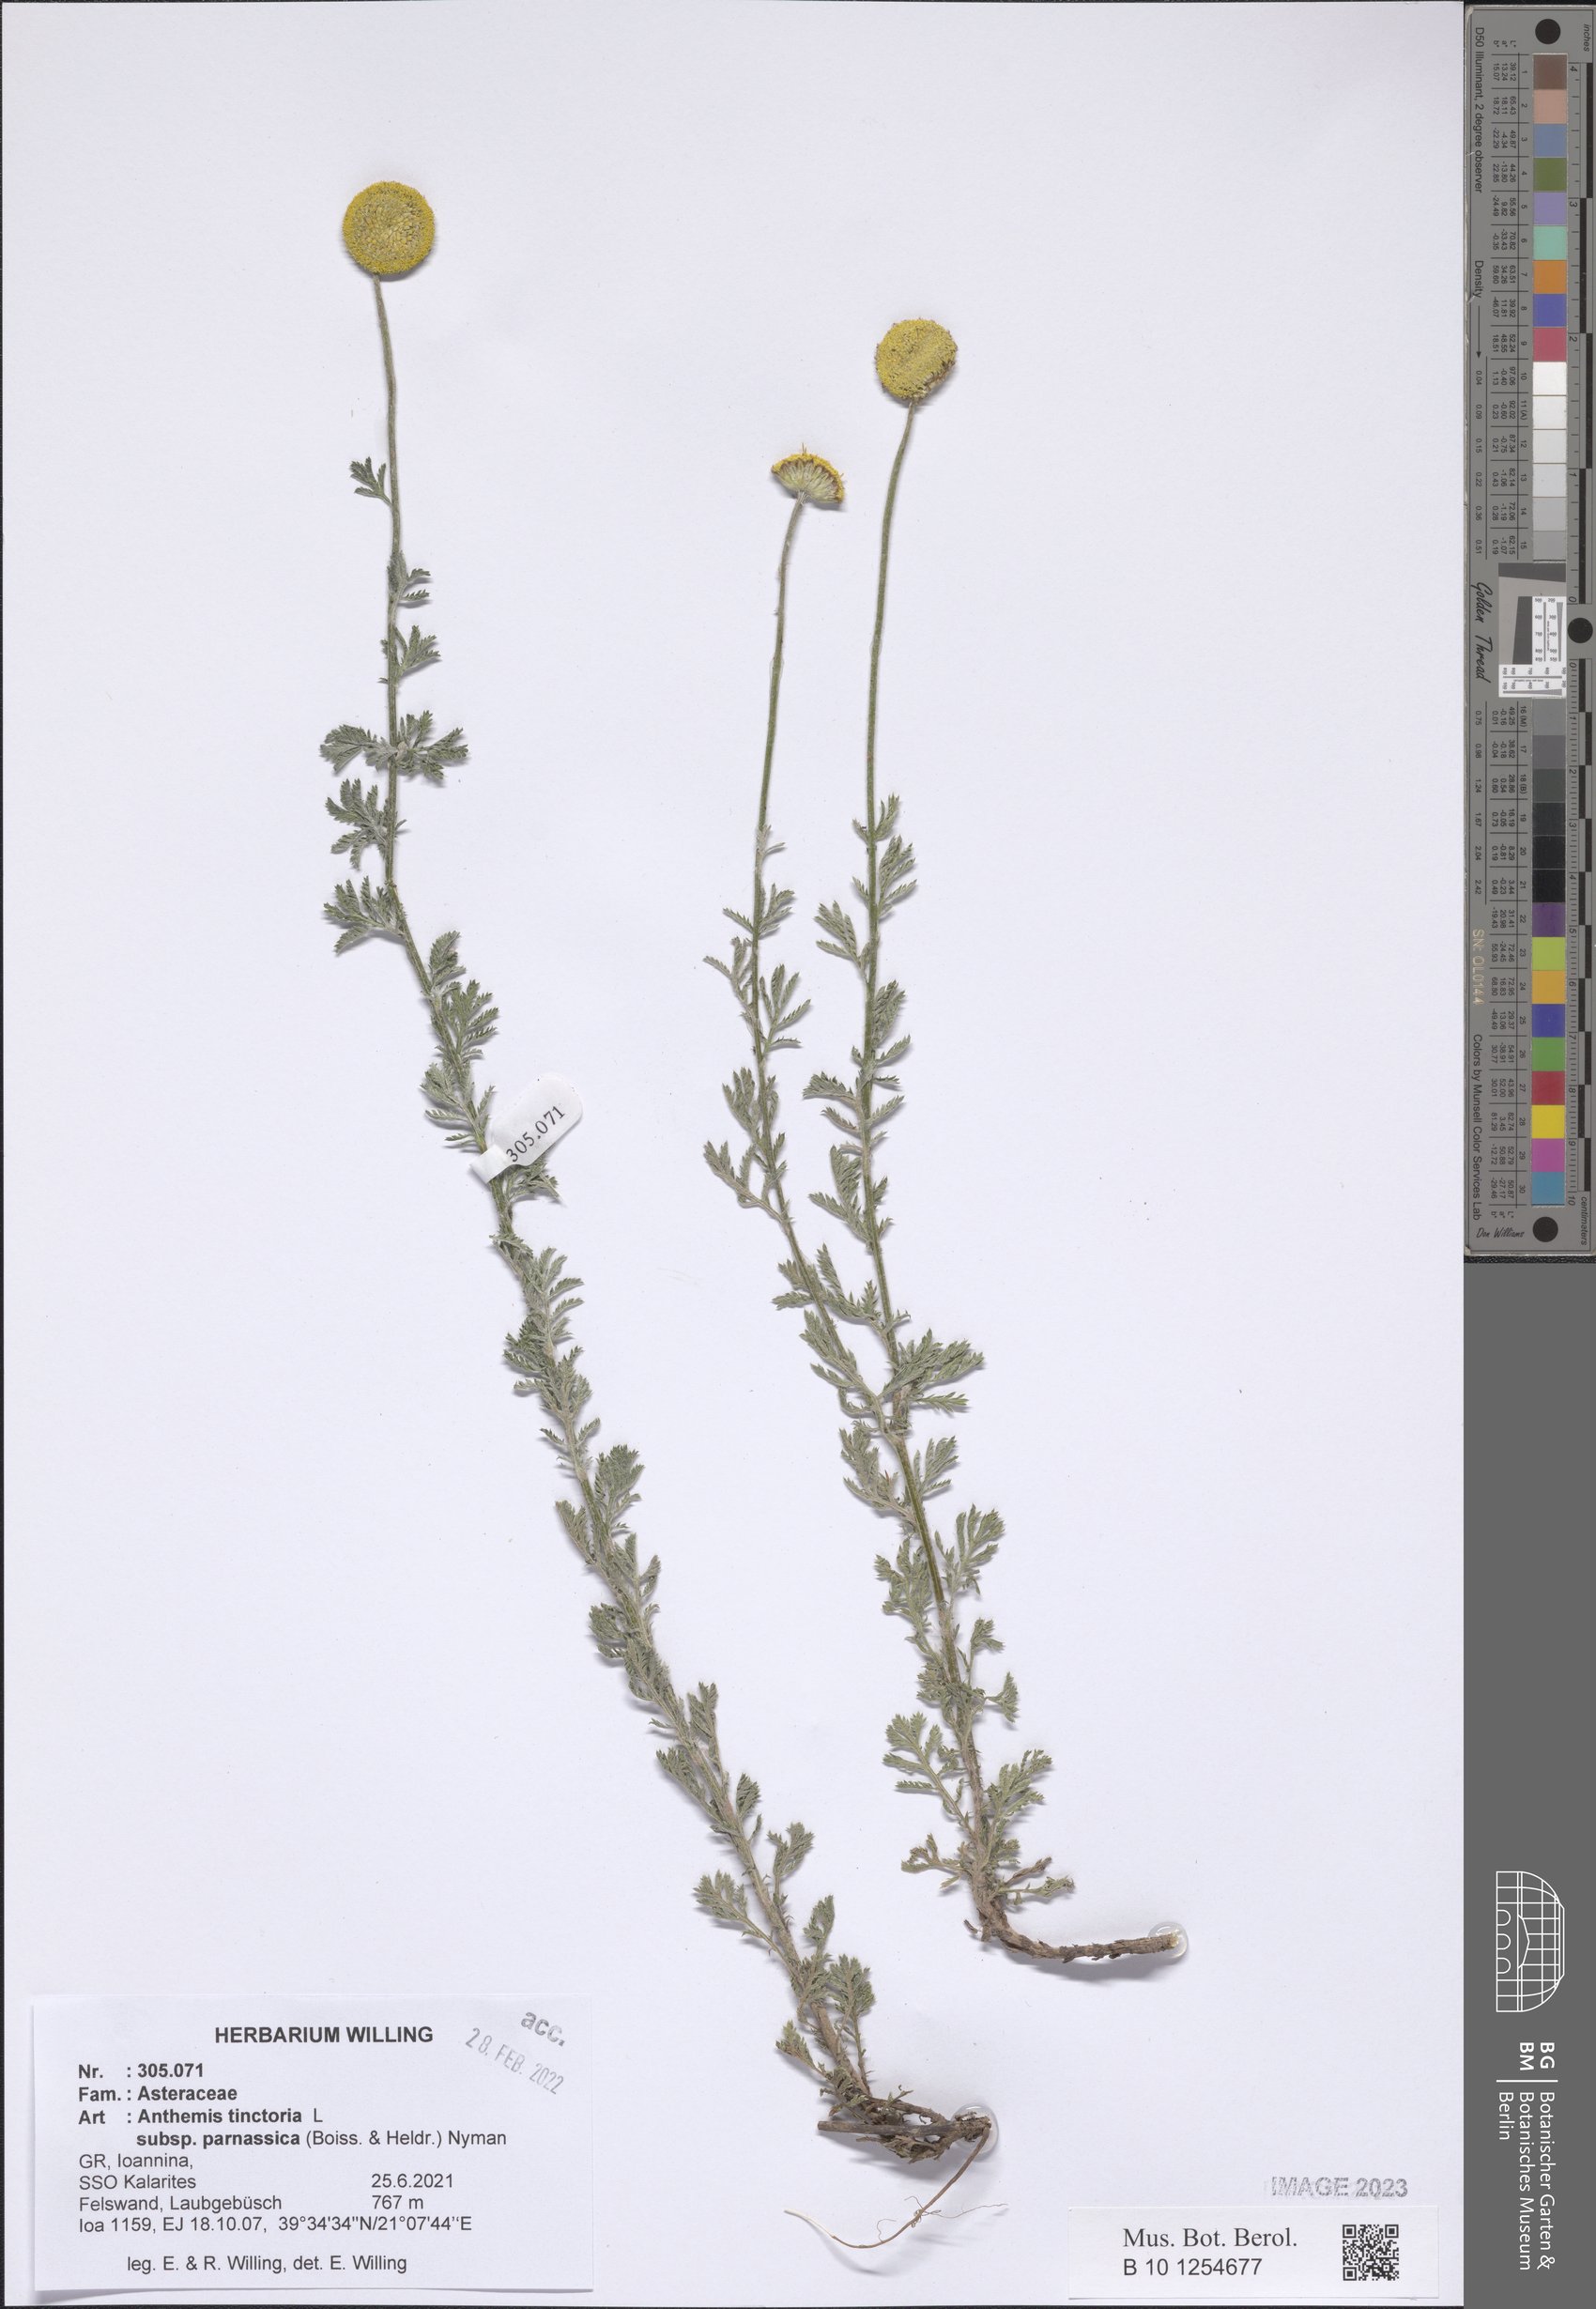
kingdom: Plantae
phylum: Tracheophyta
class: Magnoliopsida
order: Asterales
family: Asteraceae
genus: Cota
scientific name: Cota tinctoria
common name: Golden chamomile
